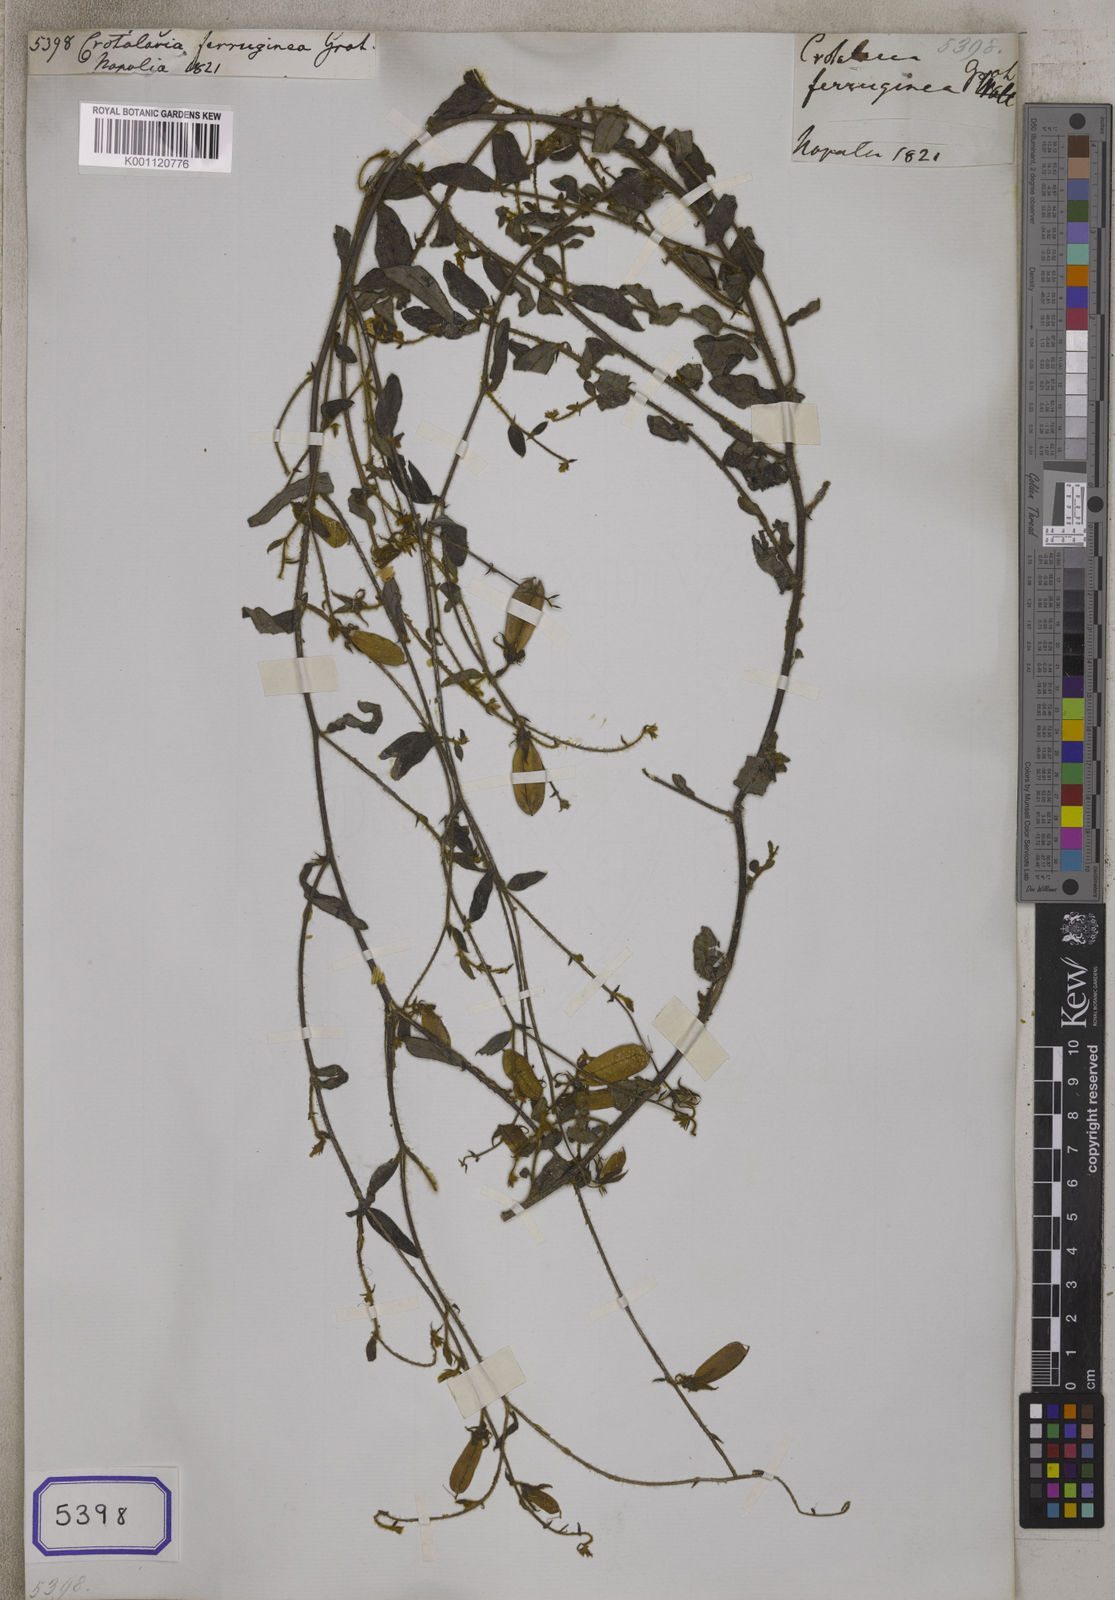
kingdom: Plantae
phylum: Tracheophyta
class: Magnoliopsida
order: Fabales
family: Fabaceae
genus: Crotalaria
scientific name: Crotalaria
